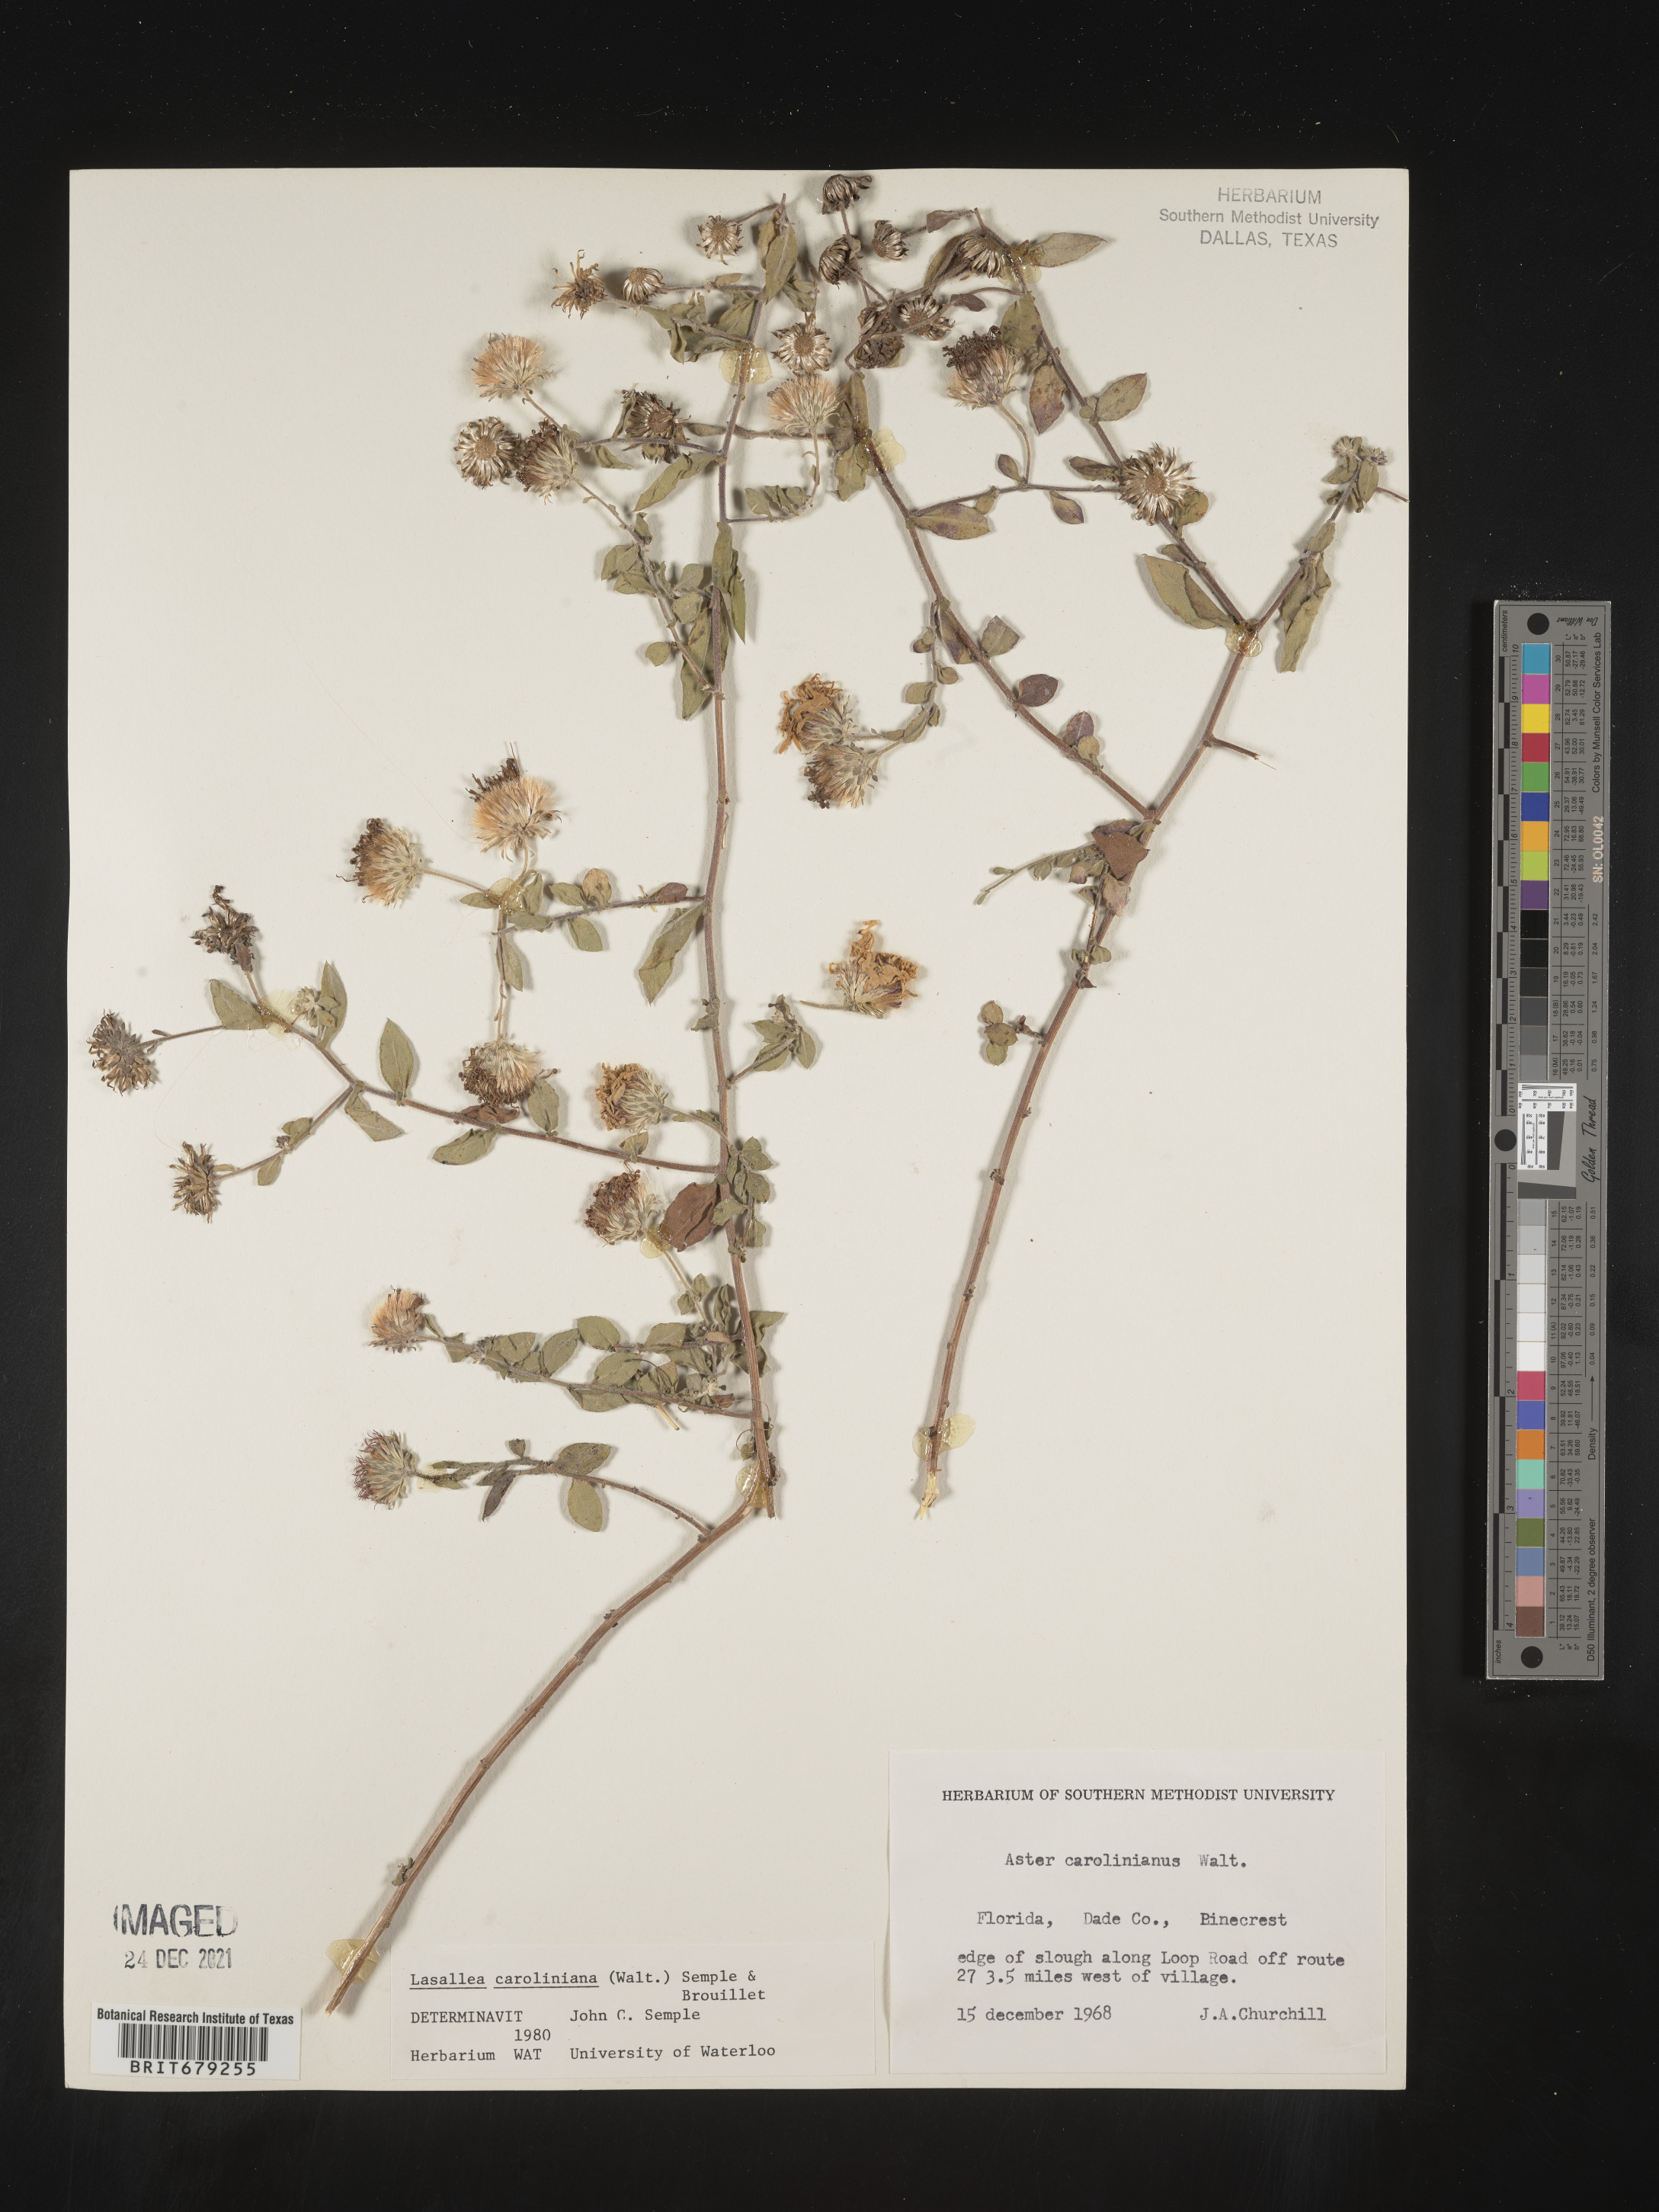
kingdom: Plantae
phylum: Tracheophyta
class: Magnoliopsida
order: Asterales
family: Asteraceae
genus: Ampelaster
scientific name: Ampelaster
